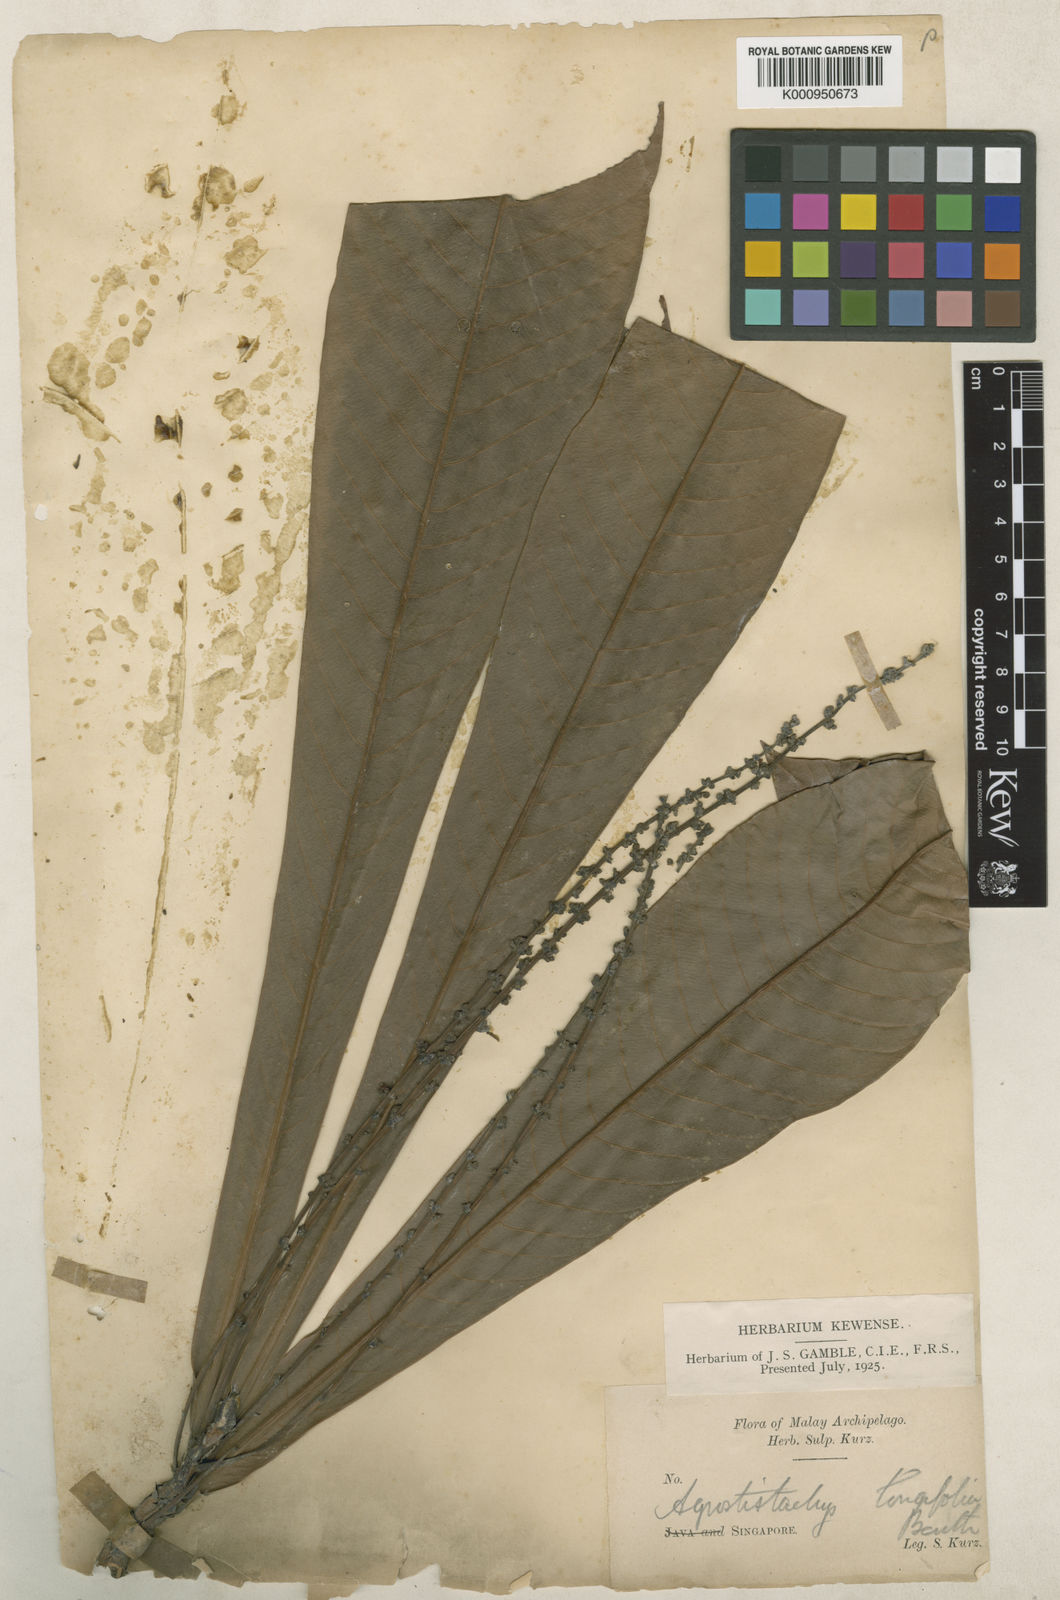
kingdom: Plantae
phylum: Tracheophyta
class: Magnoliopsida
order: Malpighiales
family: Euphorbiaceae
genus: Agrostistachys
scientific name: Agrostistachys sessilifolia
